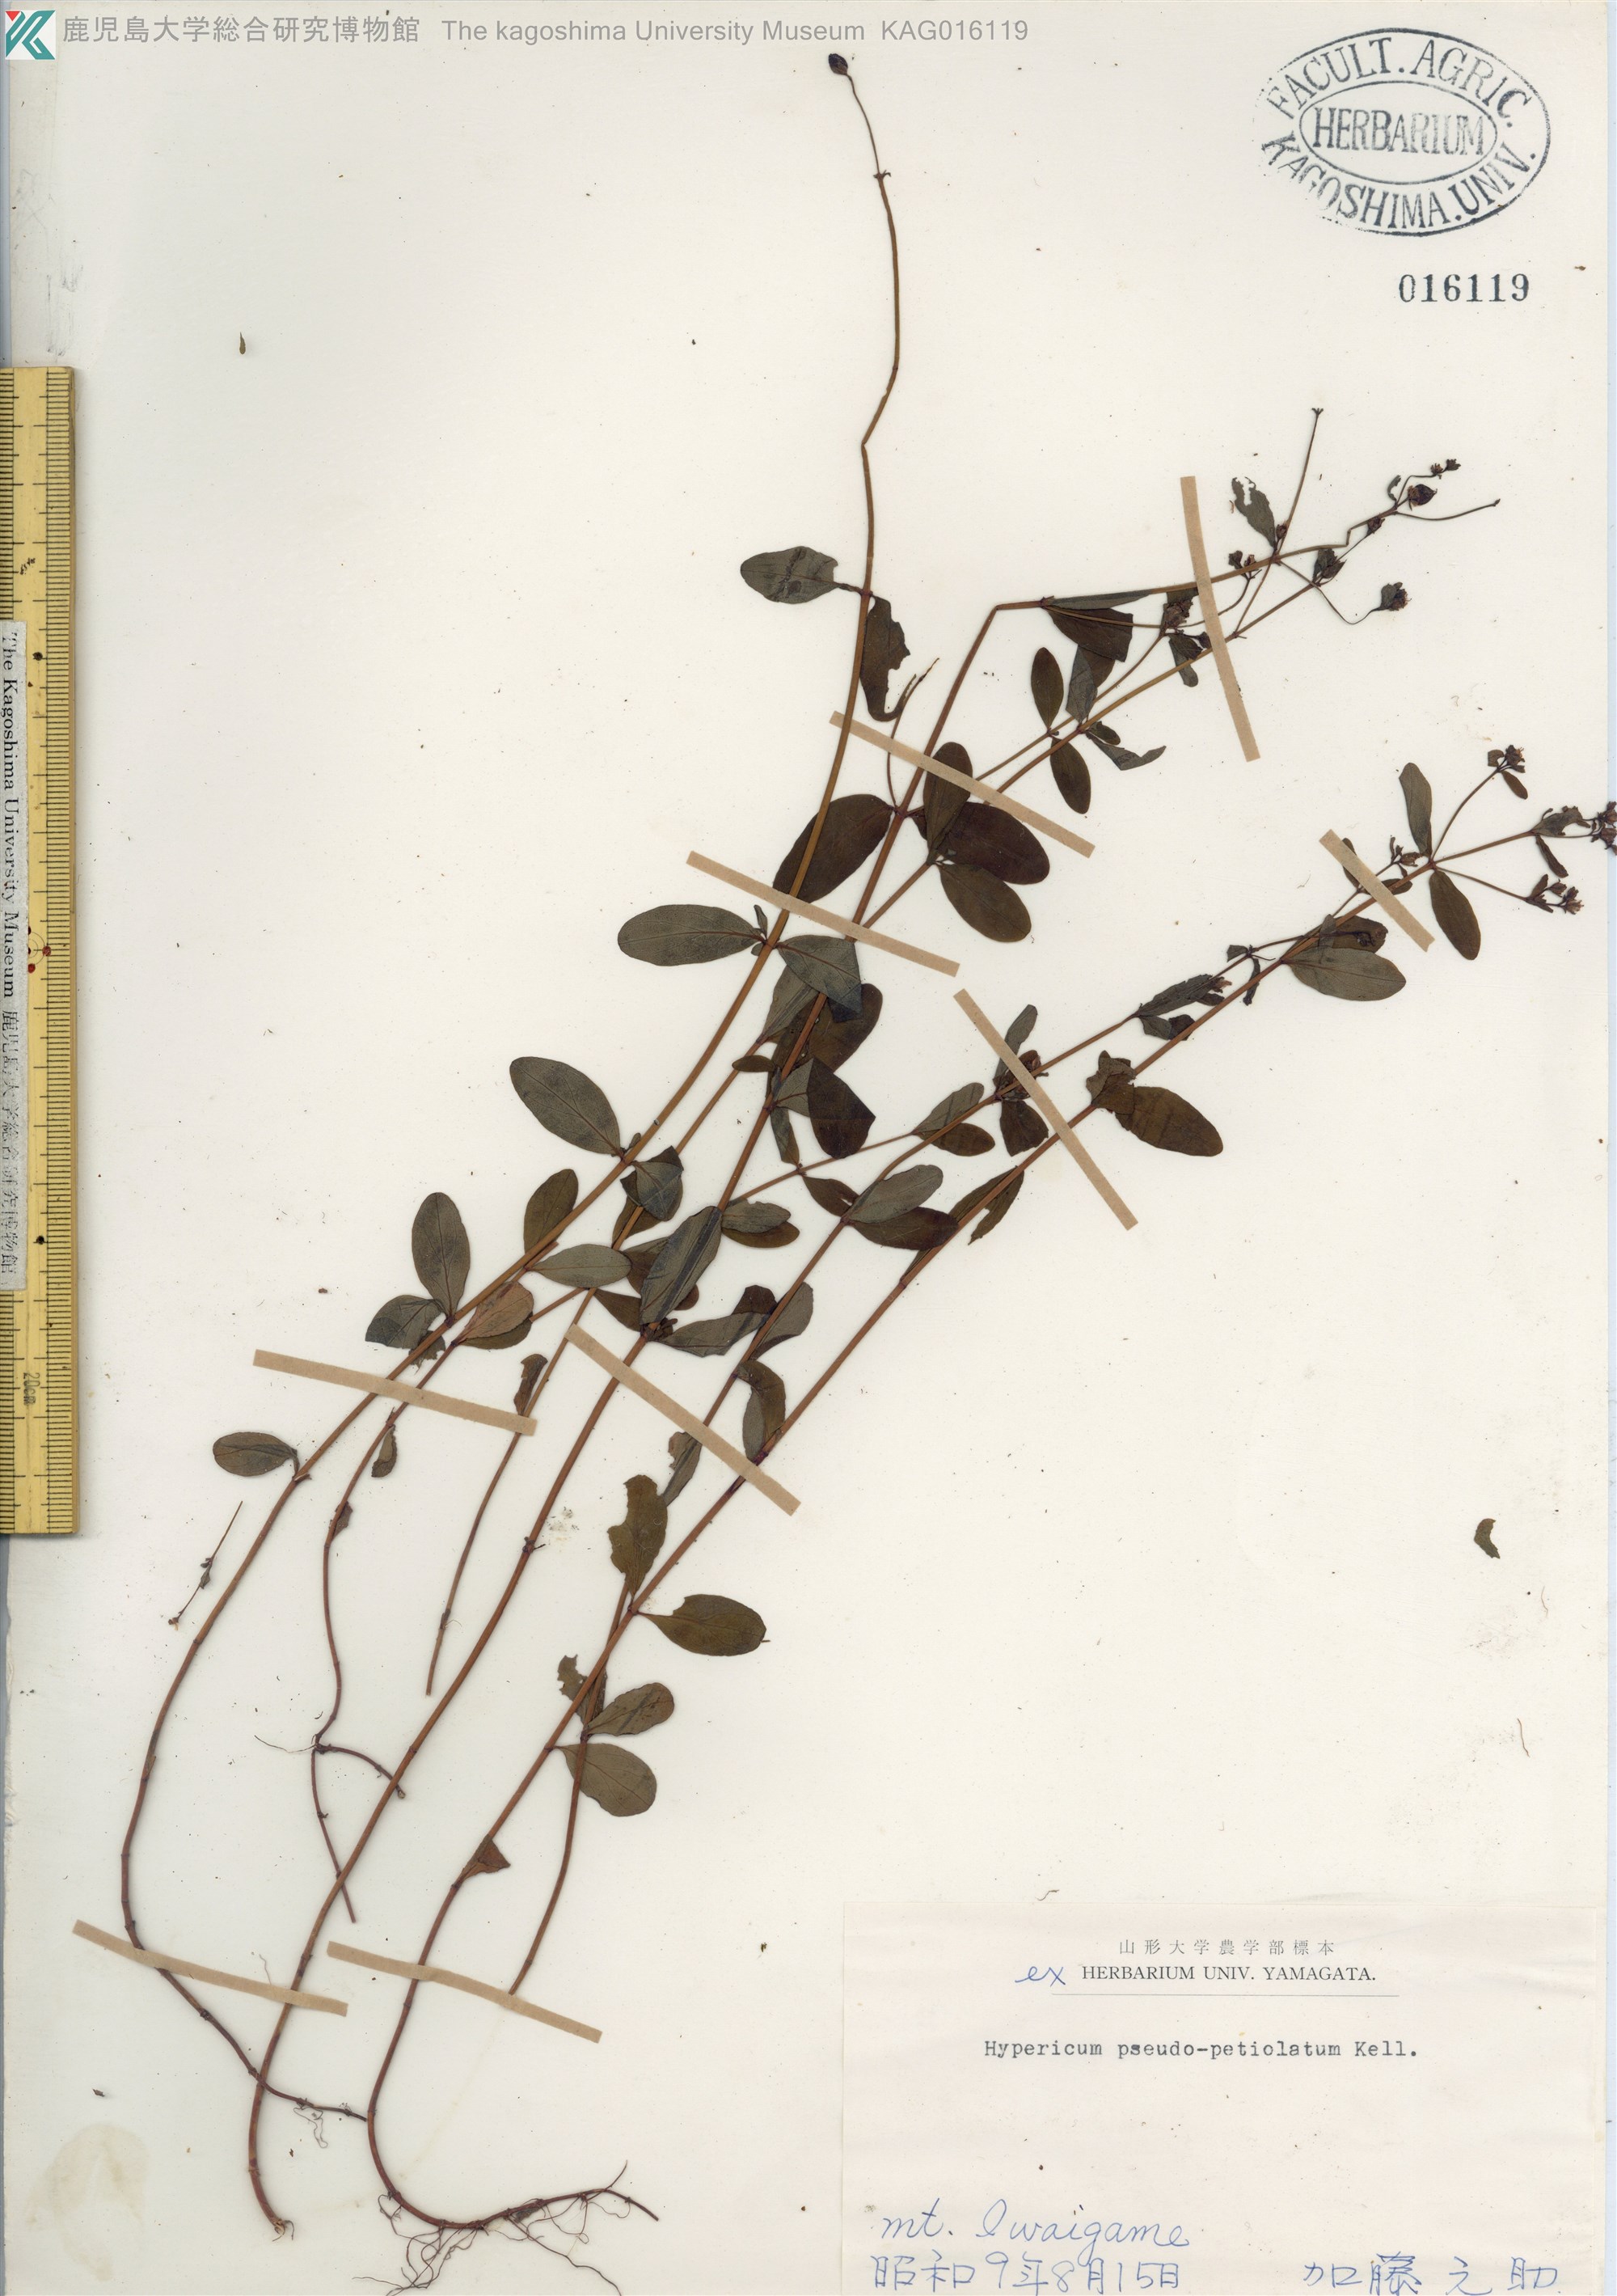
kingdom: Plantae
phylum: Tracheophyta
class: Magnoliopsida
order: Malpighiales
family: Hypericaceae
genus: Hypericum
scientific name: Hypericum pseudopetiolatum
